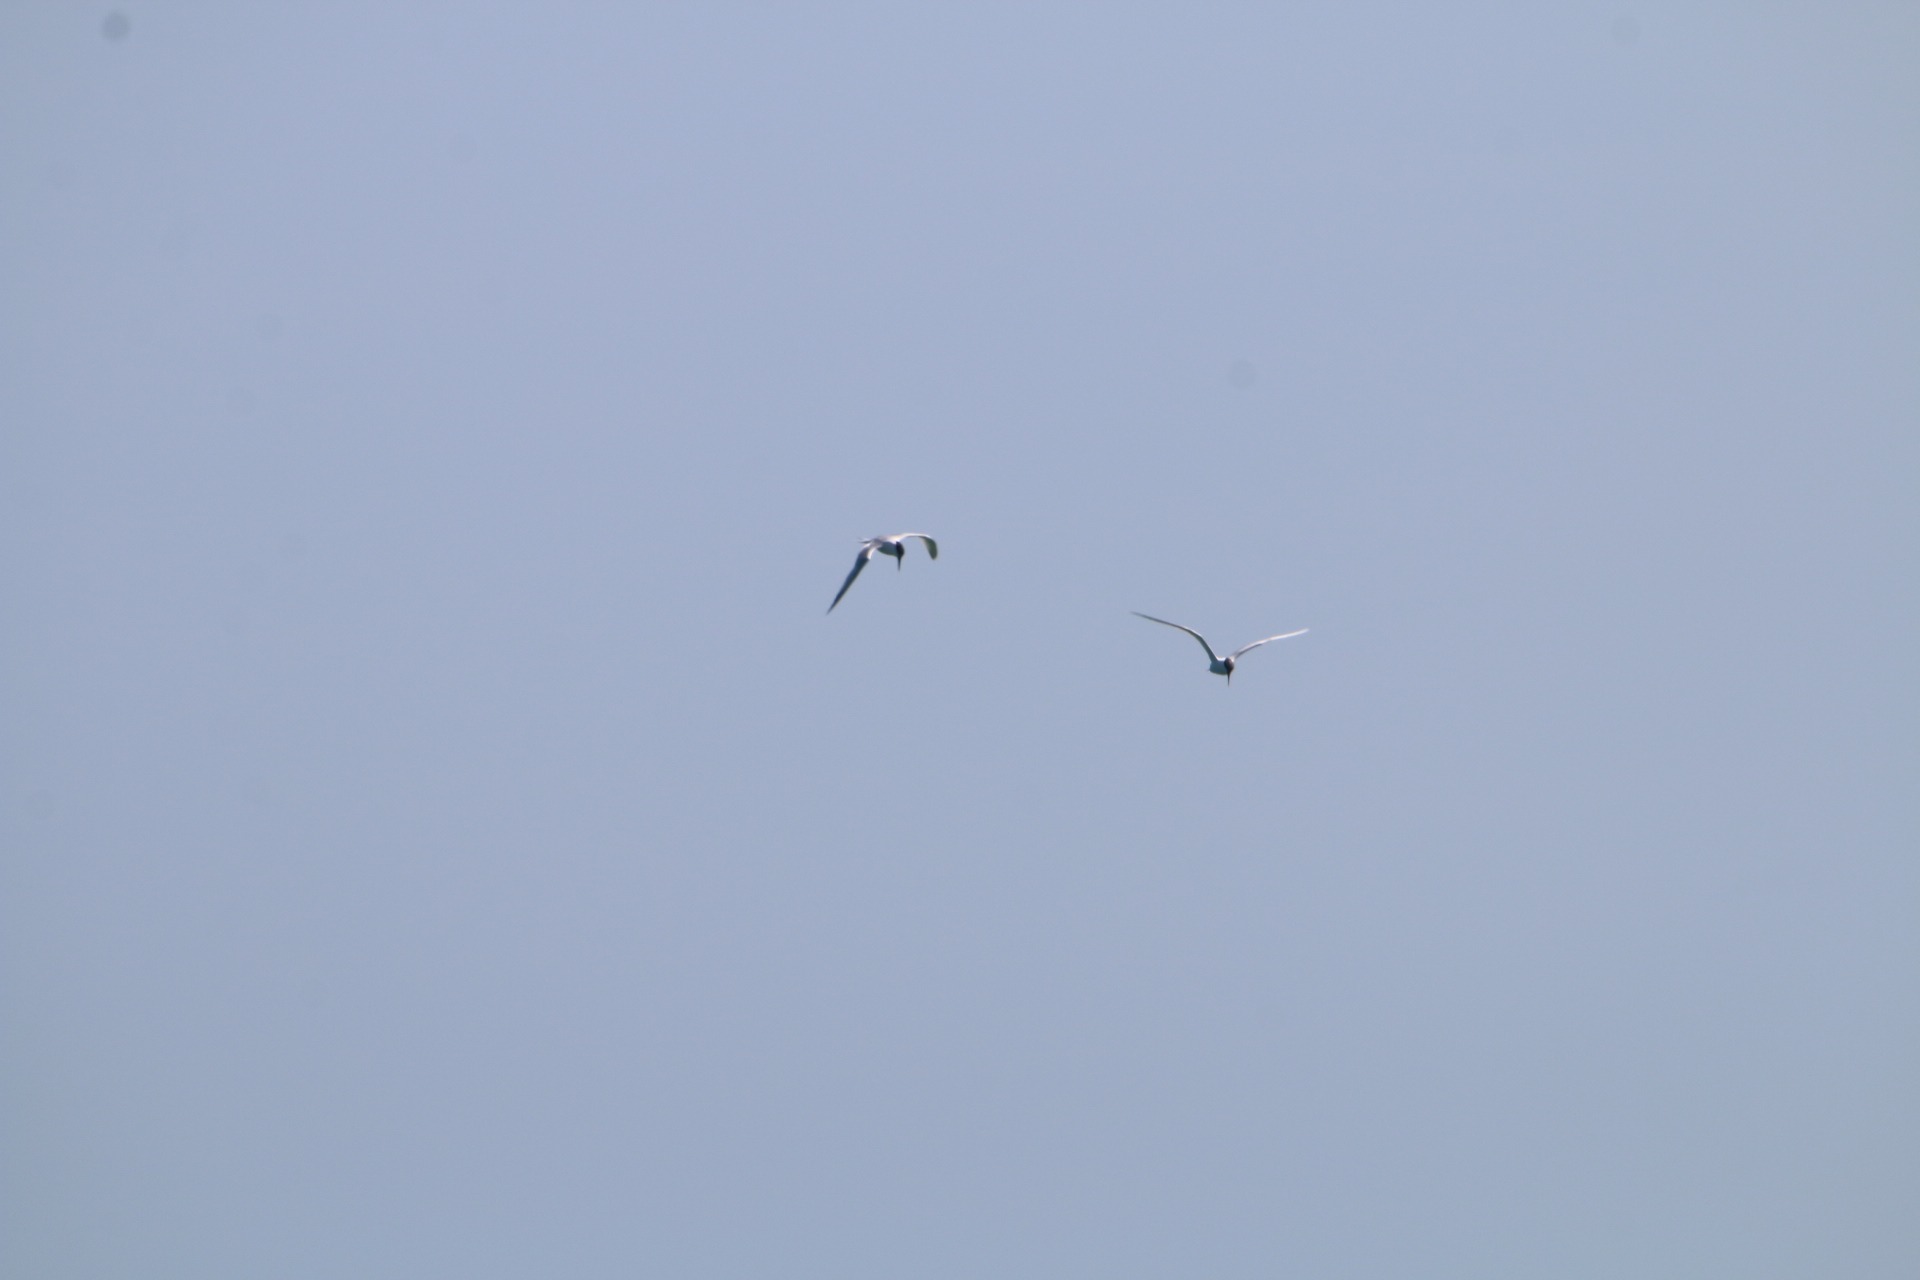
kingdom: Animalia
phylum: Chordata
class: Aves
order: Charadriiformes
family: Laridae
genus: Thalasseus
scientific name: Thalasseus sandvicensis
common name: Splitterne
